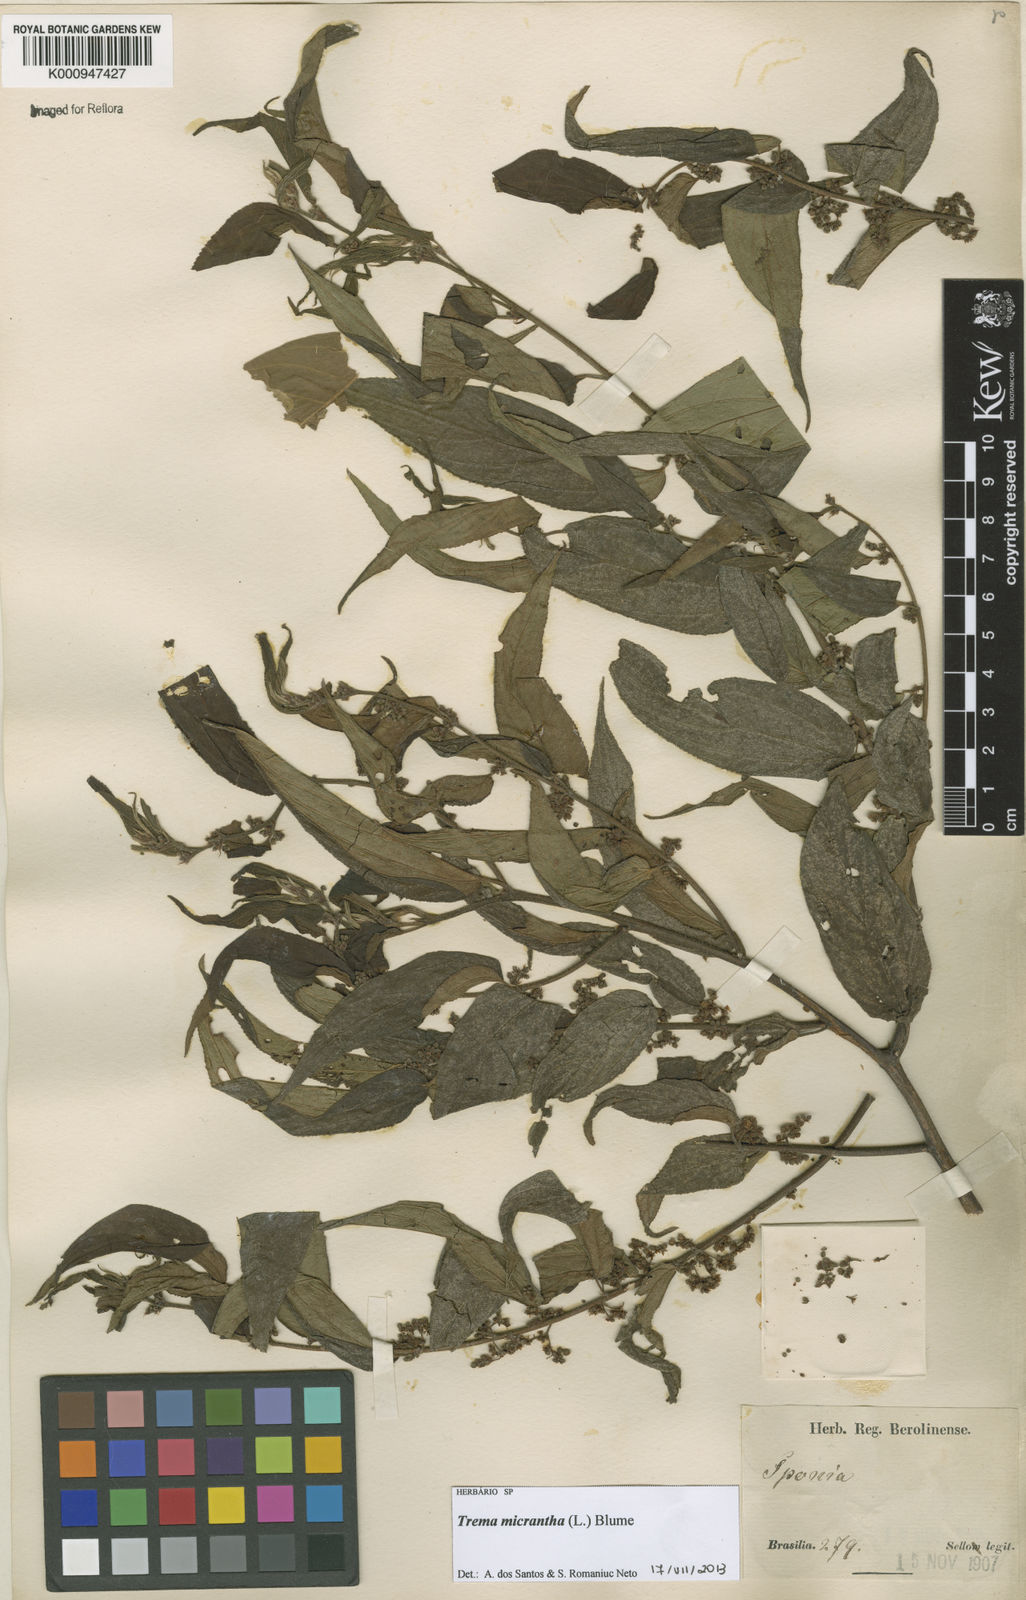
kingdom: Plantae
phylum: Tracheophyta
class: Magnoliopsida
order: Rosales
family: Cannabaceae
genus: Trema
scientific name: Trema micranthum
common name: Jamaican nettletree
